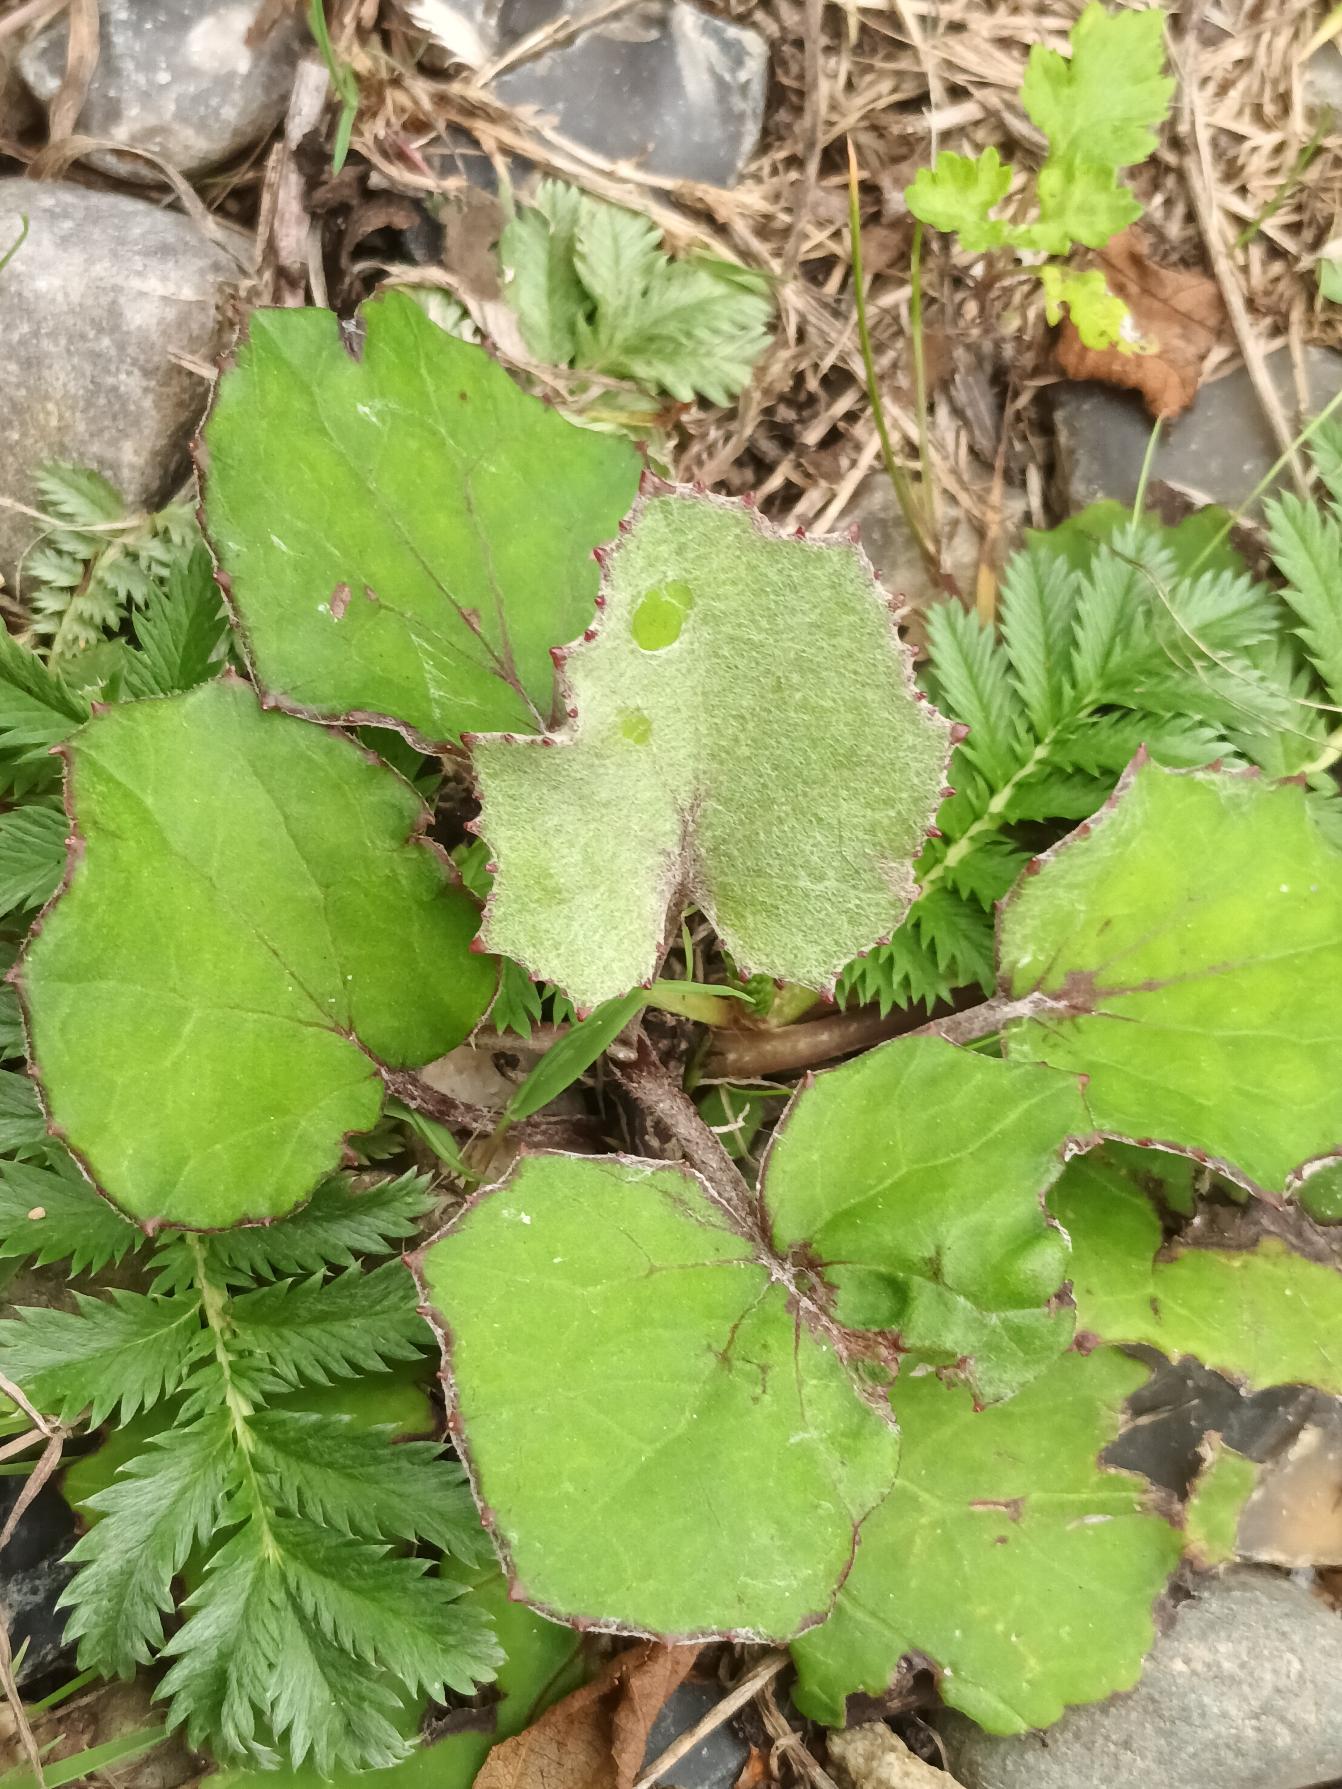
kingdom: Plantae
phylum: Tracheophyta
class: Magnoliopsida
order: Asterales
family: Asteraceae
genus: Tussilago
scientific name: Tussilago farfara
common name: Følfod
